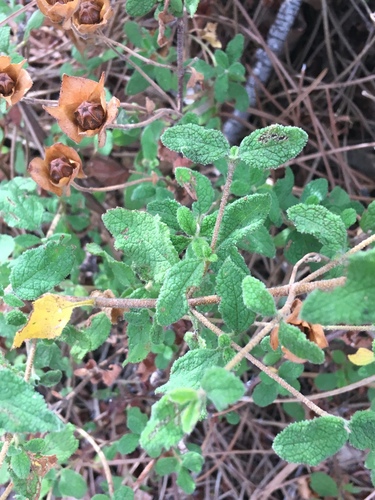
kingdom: Plantae
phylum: Tracheophyta
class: Magnoliopsida
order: Malvales
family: Cistaceae
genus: Cistus
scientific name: Cistus salviifolius
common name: Salvia cistus
